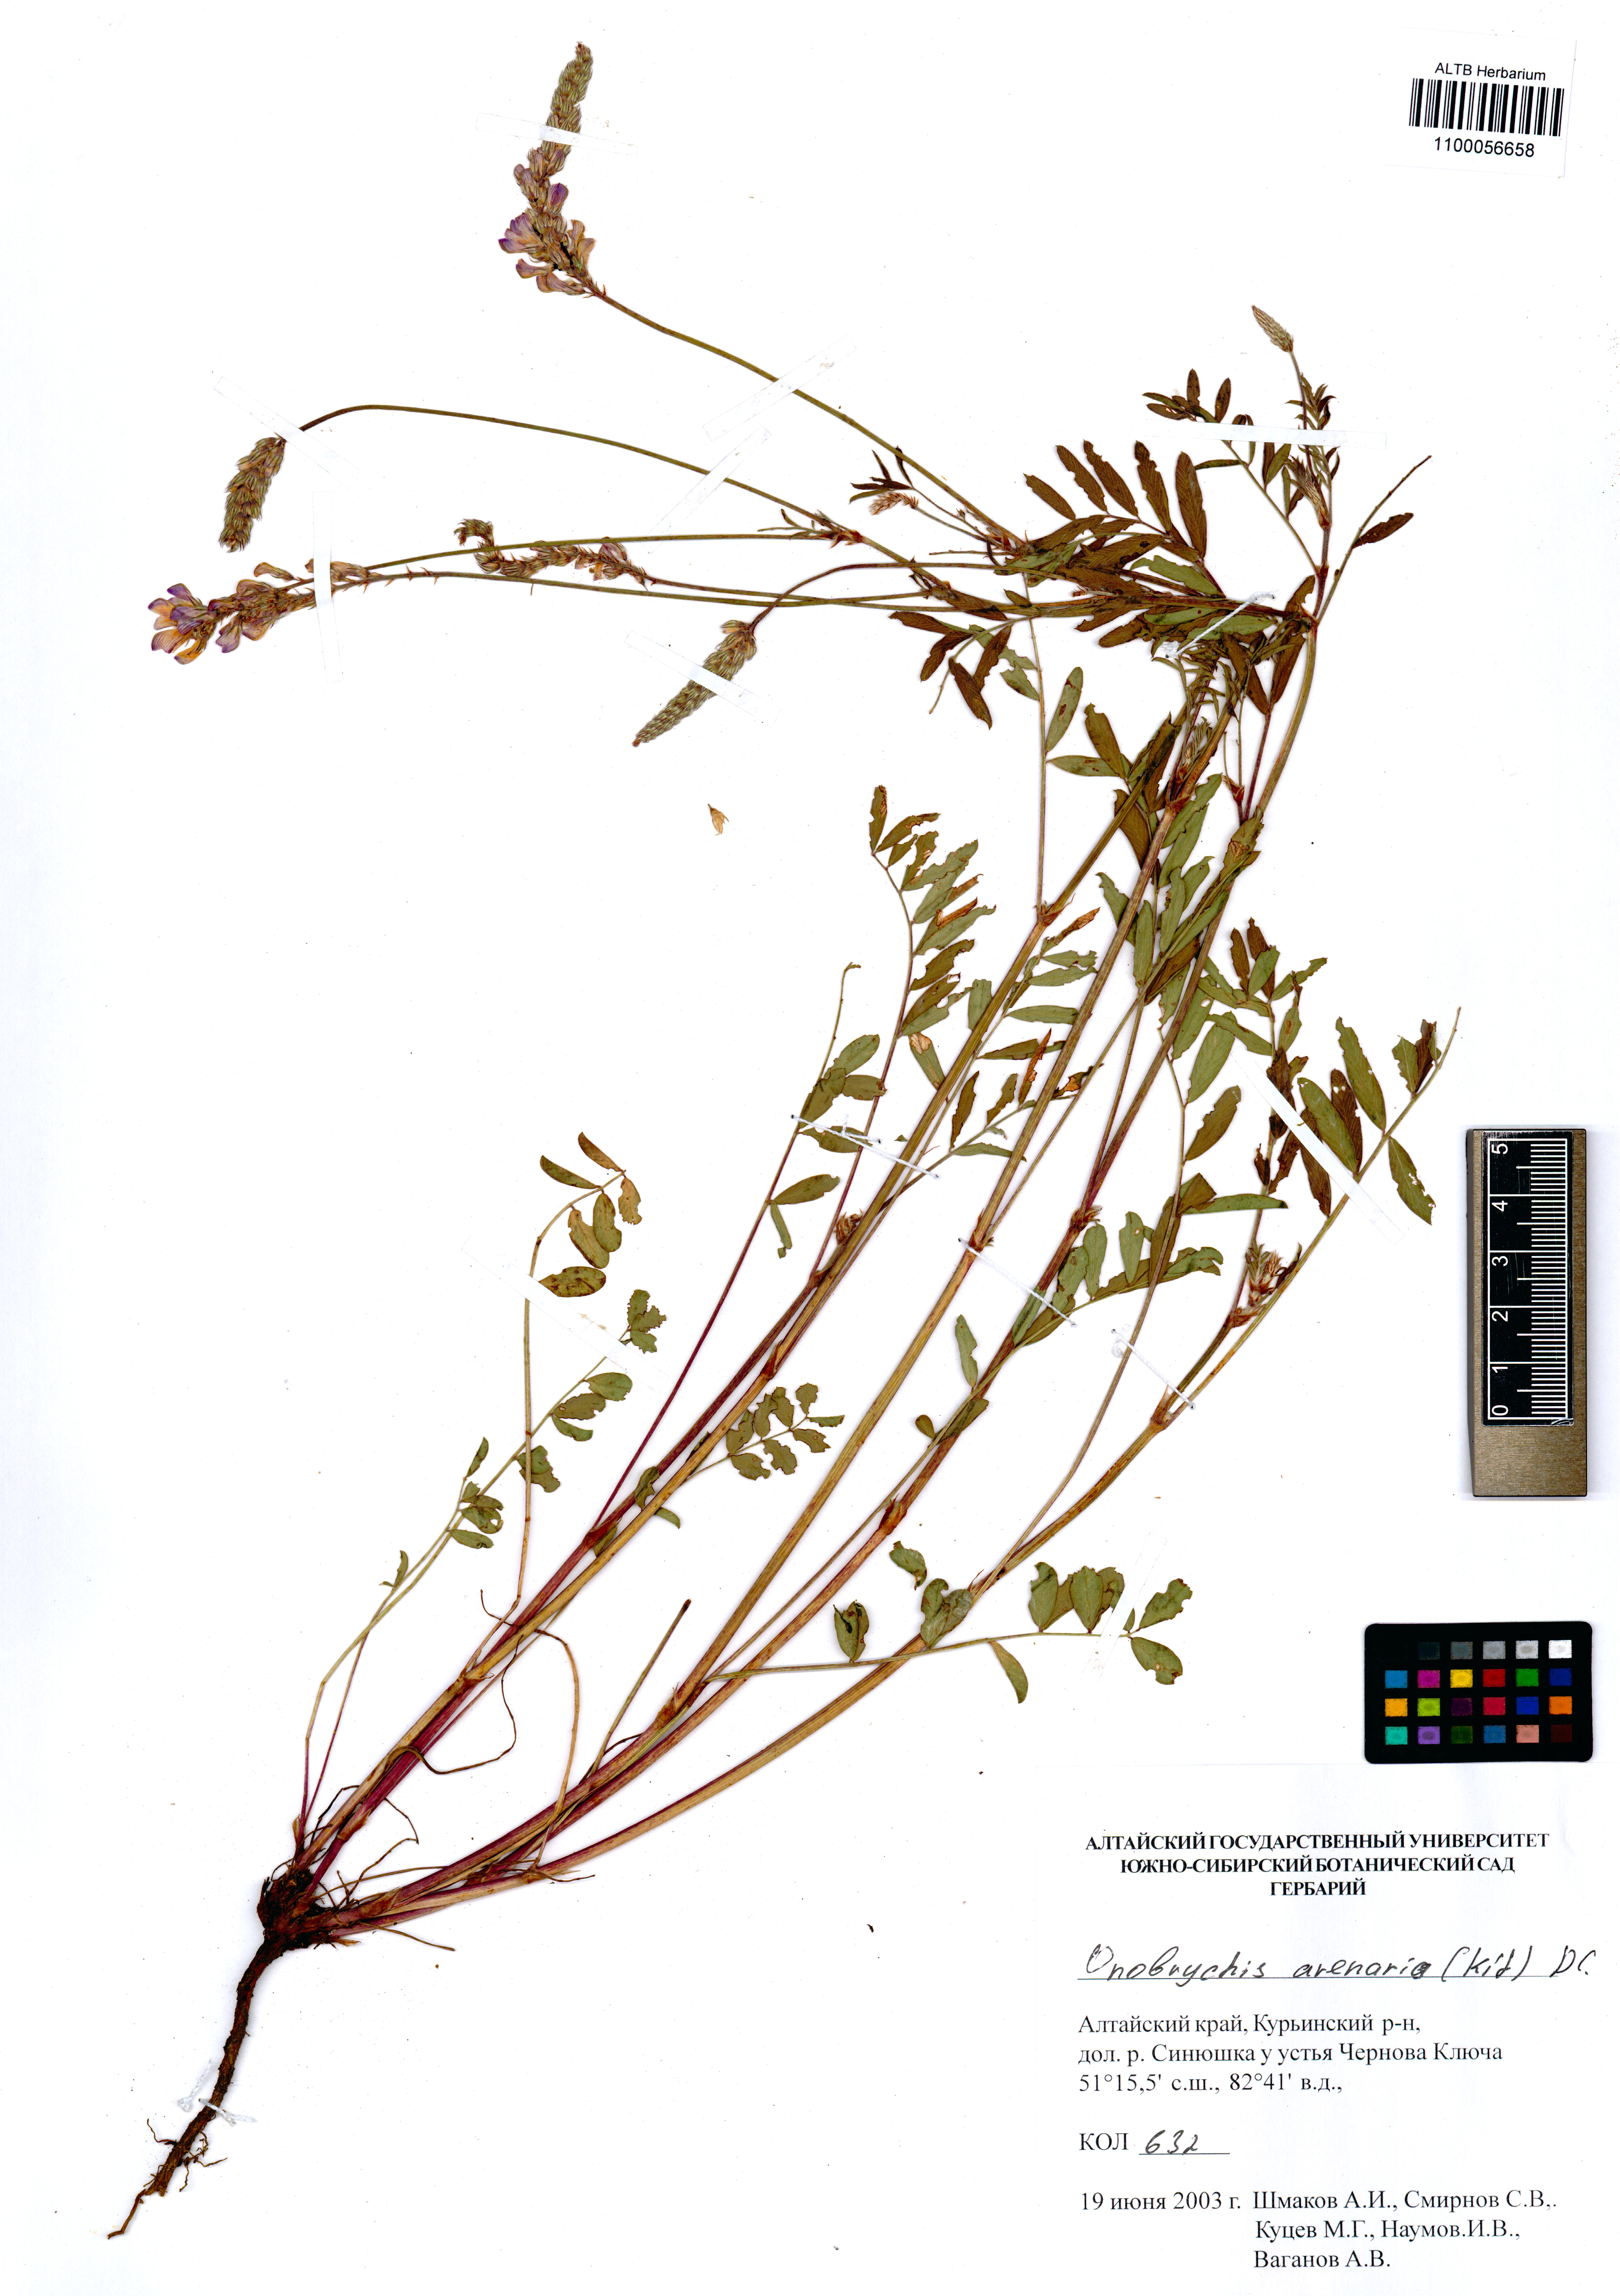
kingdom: Plantae
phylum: Tracheophyta
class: Magnoliopsida
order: Fabales
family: Fabaceae
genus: Onobrychis
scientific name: Onobrychis arenaria
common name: Sand esparcet
